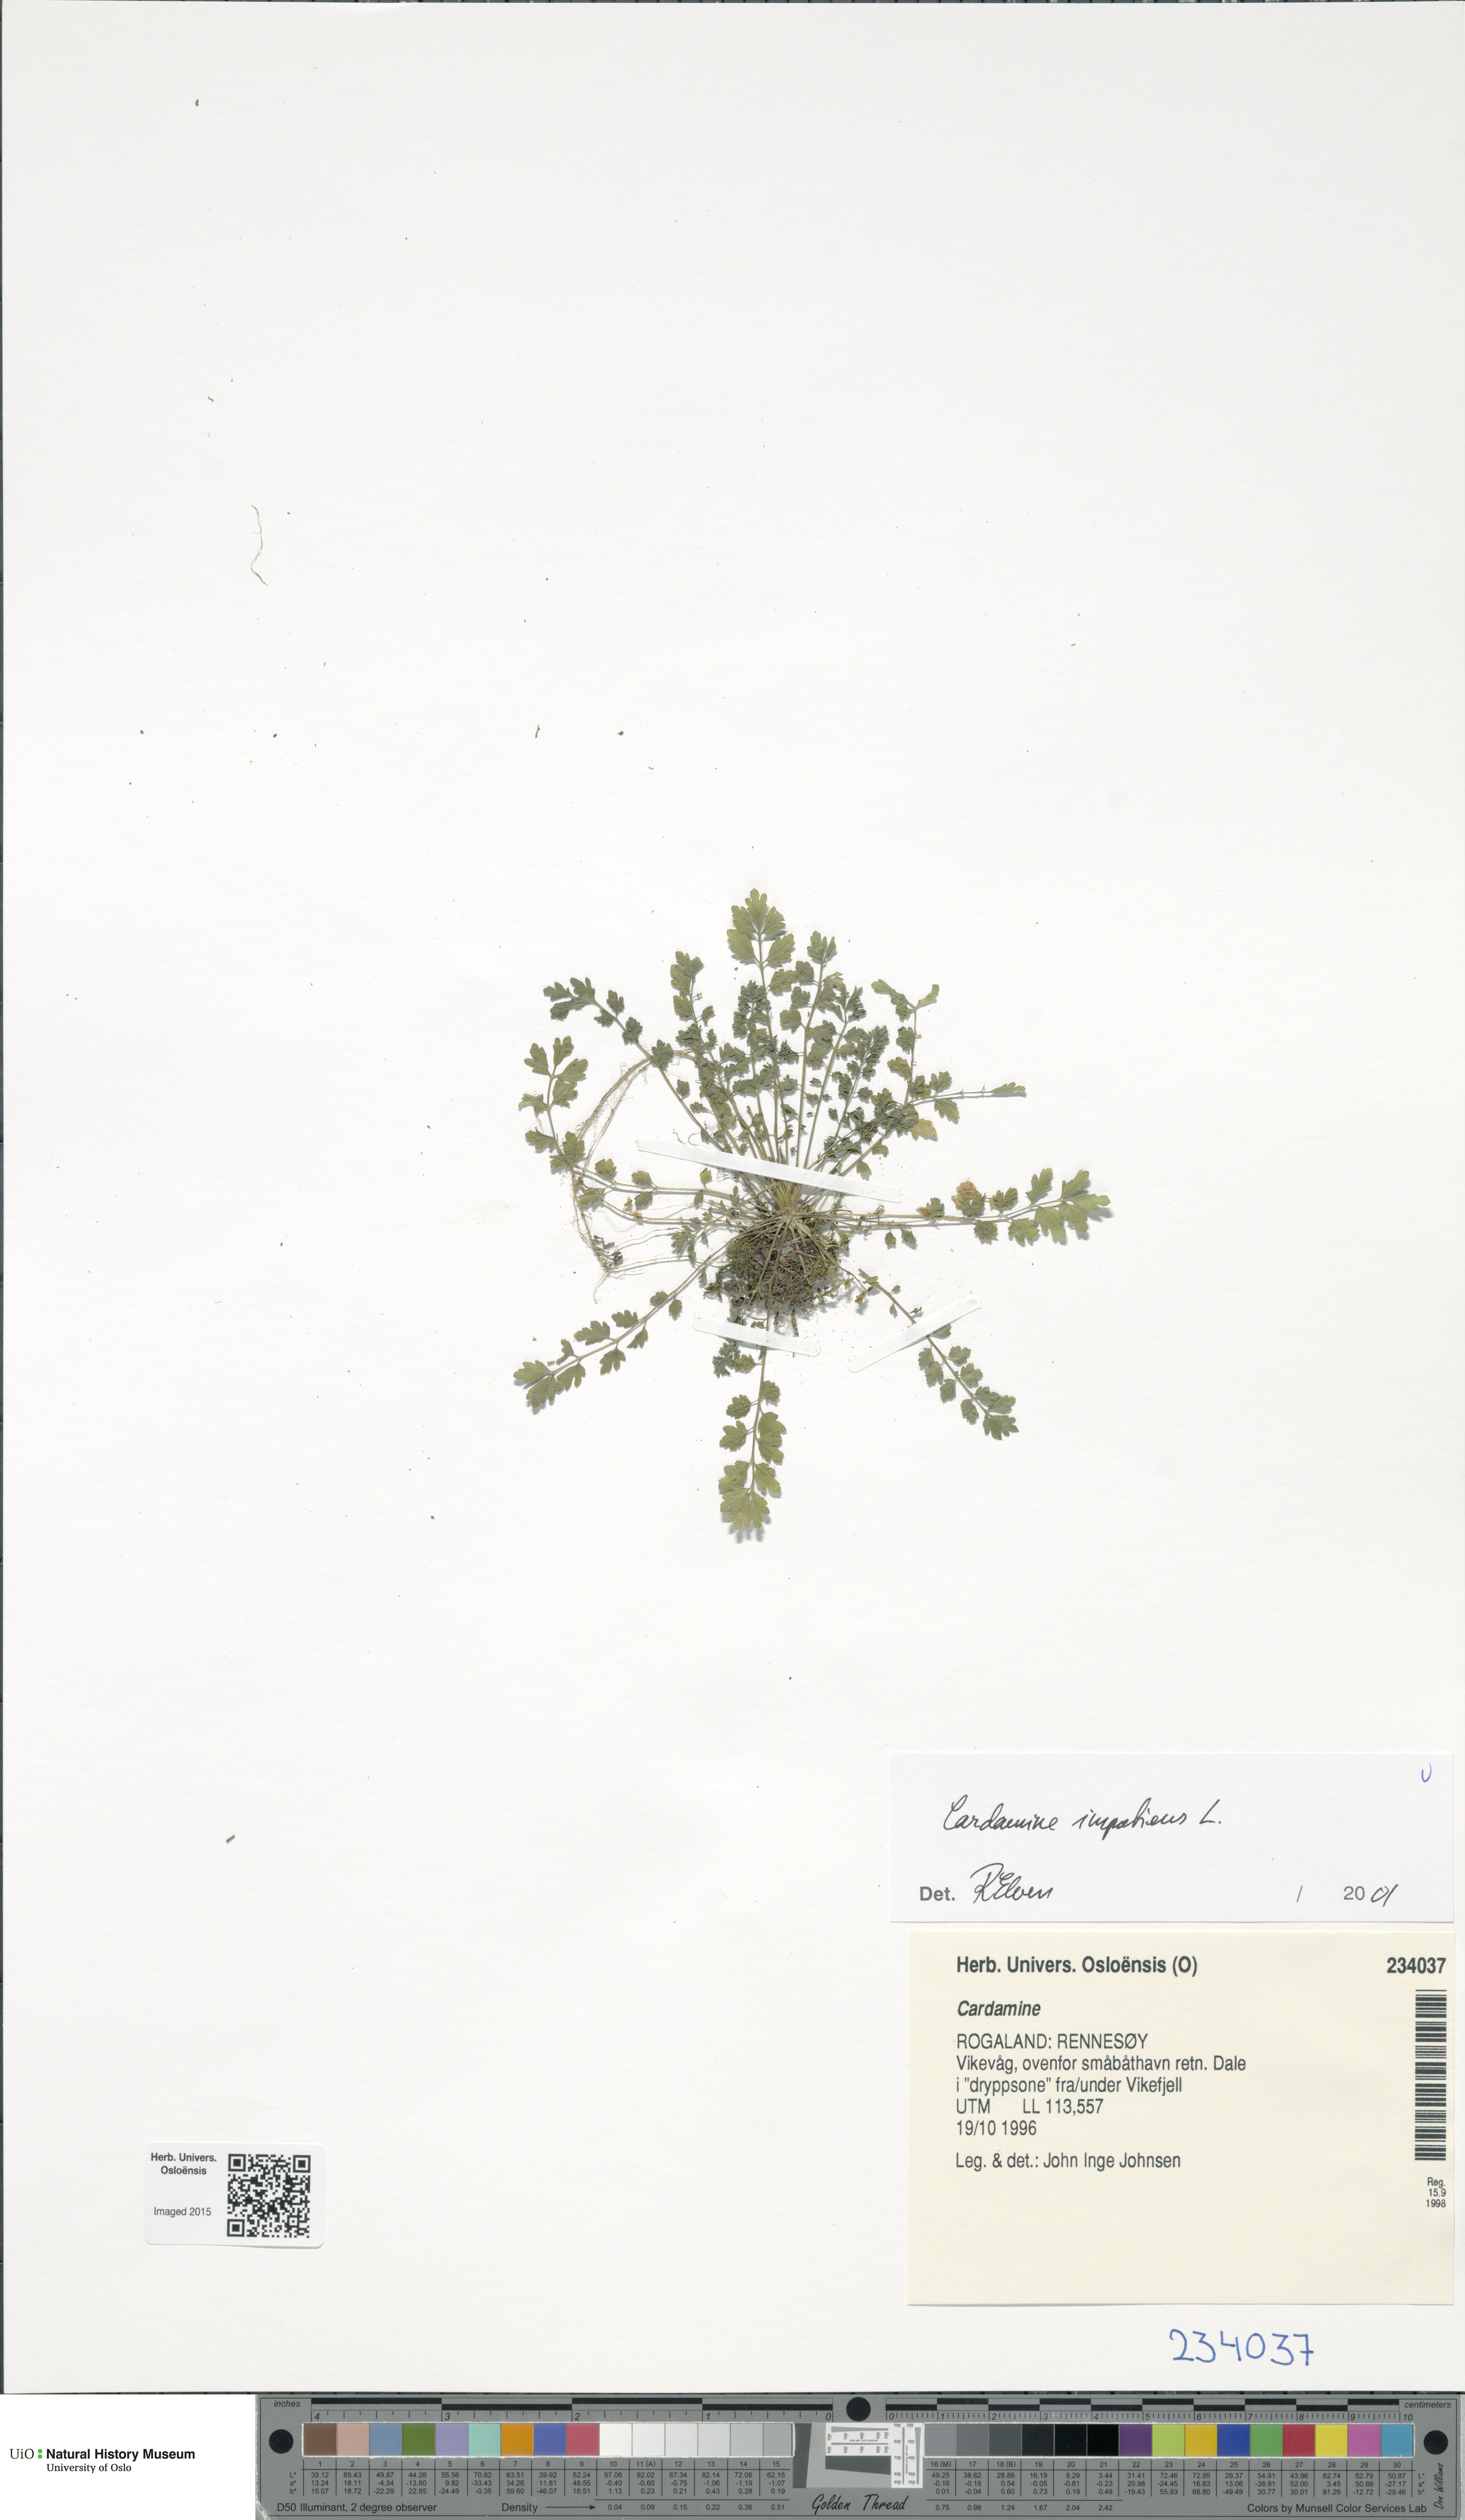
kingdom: Plantae
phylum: Tracheophyta
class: Magnoliopsida
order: Brassicales
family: Brassicaceae
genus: Cardamine
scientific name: Cardamine impatiens
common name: Narrow-leaved bitter-cress
